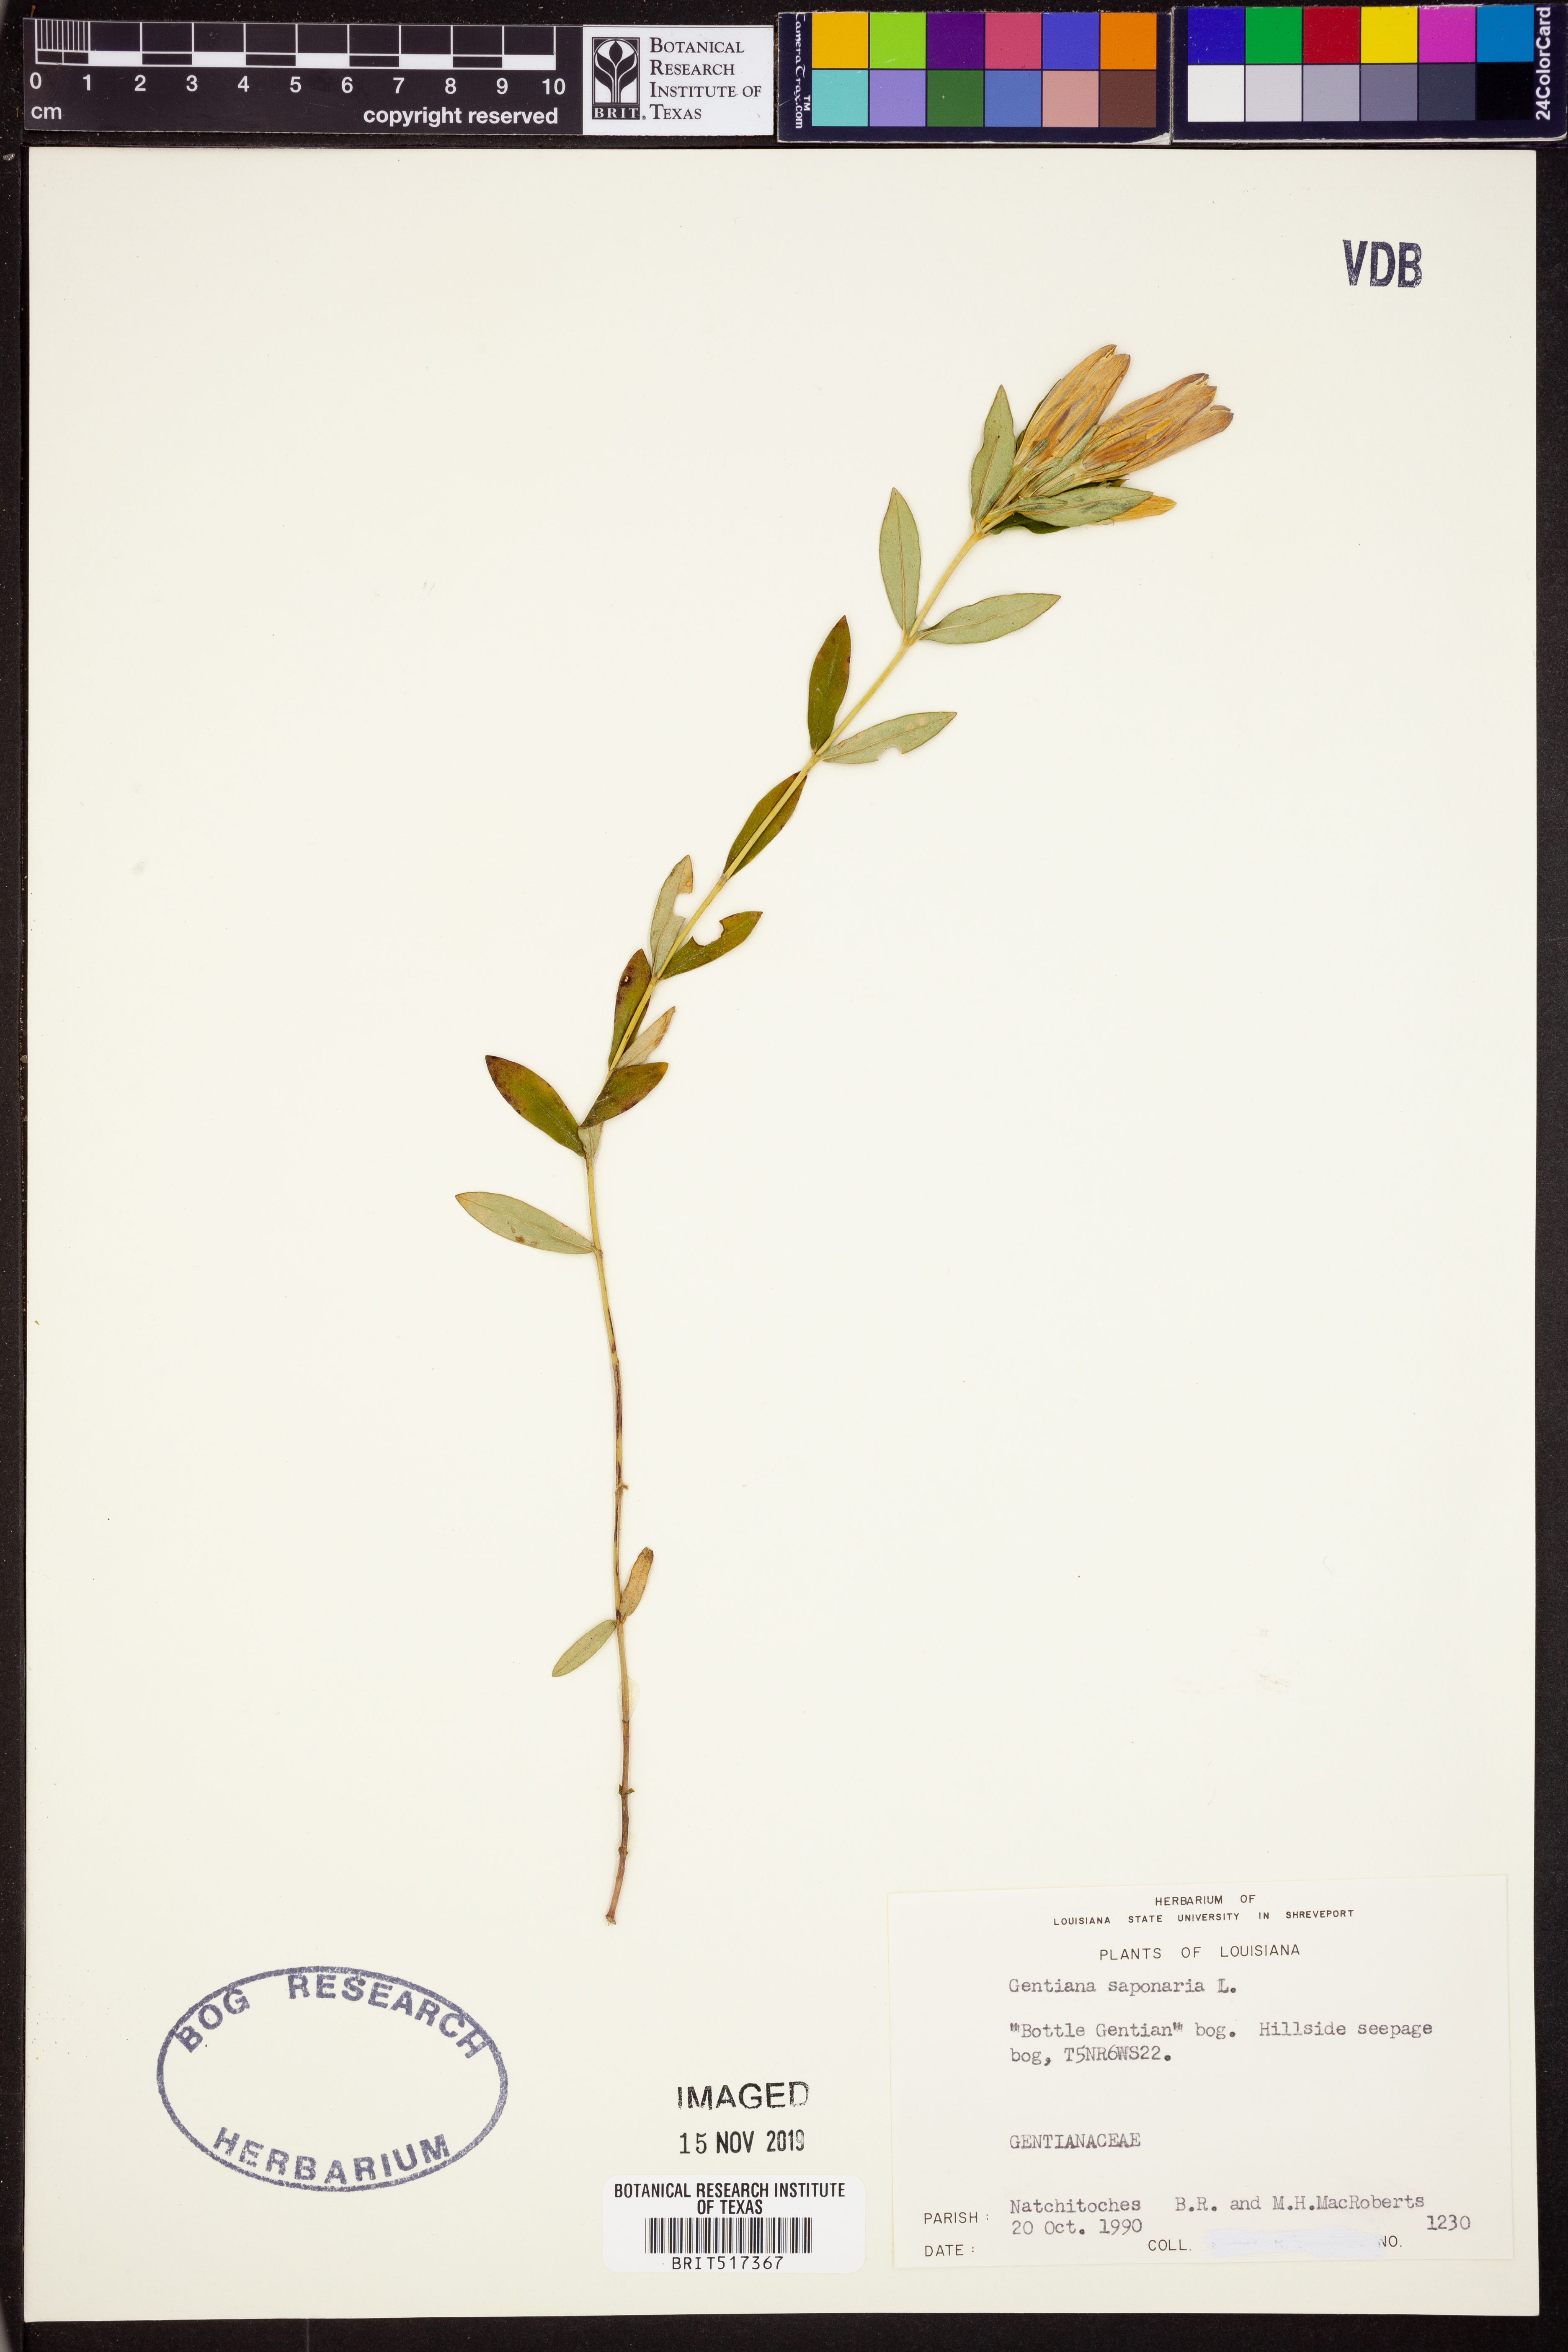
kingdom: Plantae
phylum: Tracheophyta
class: Magnoliopsida
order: Gentianales
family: Gentianaceae
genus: Gentiana
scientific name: Gentiana saponaria
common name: Soapwort gentian
